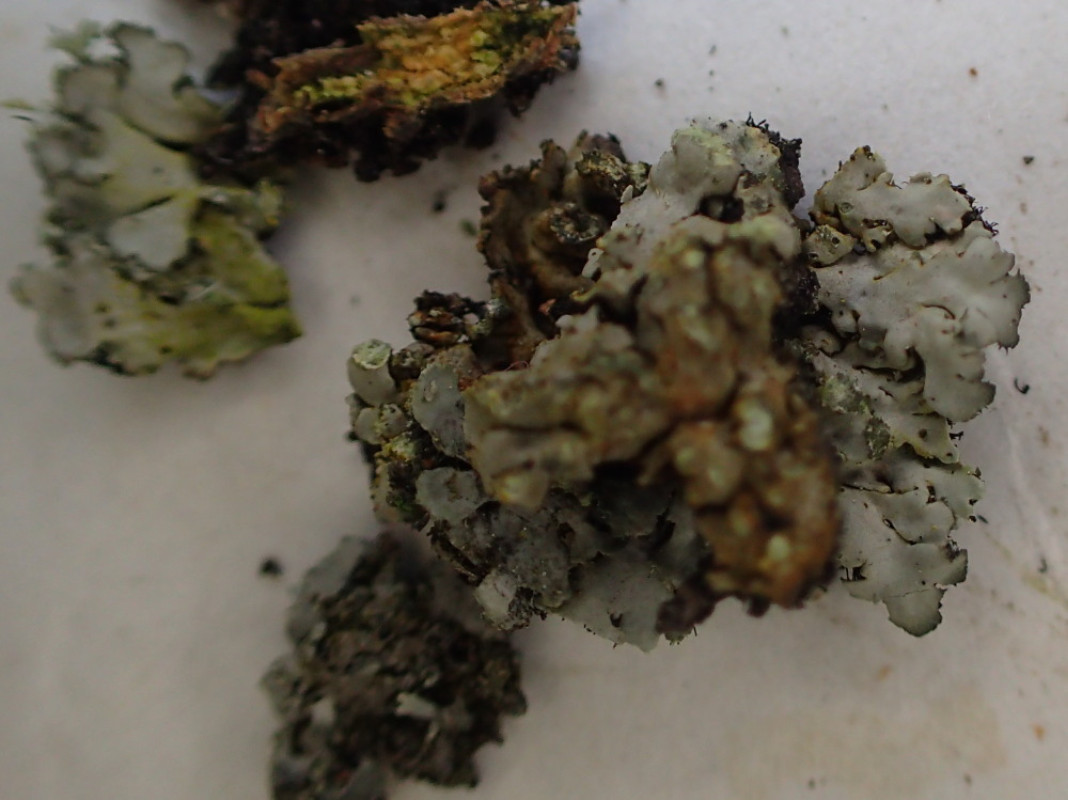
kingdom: Fungi
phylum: Ascomycota
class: Lecanoromycetes
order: Caliciales
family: Physciaceae
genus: Phaeophyscia
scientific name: Phaeophyscia orbicularis
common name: grågrøn rosetlav
